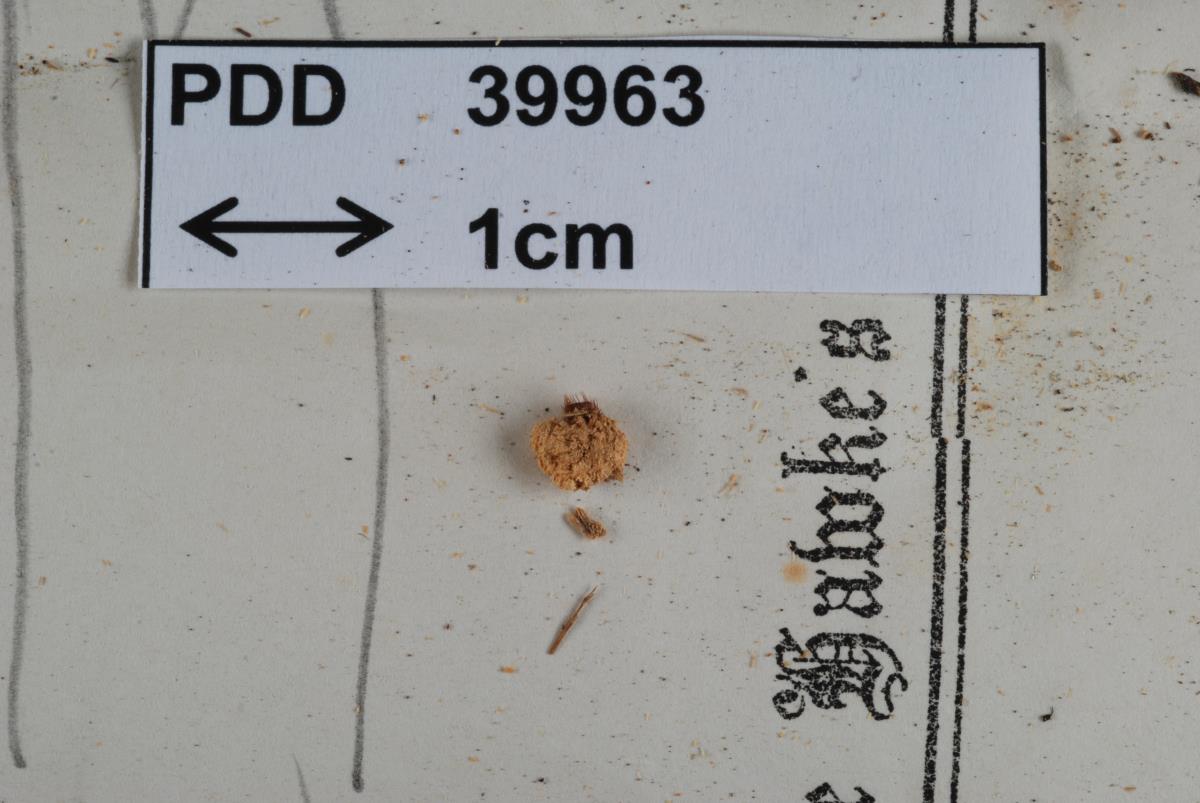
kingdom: Fungi
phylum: Ascomycota
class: Pezizomycetes
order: Pezizales
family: Pyronemataceae
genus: Scutellinia
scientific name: Scutellinia colensoi
